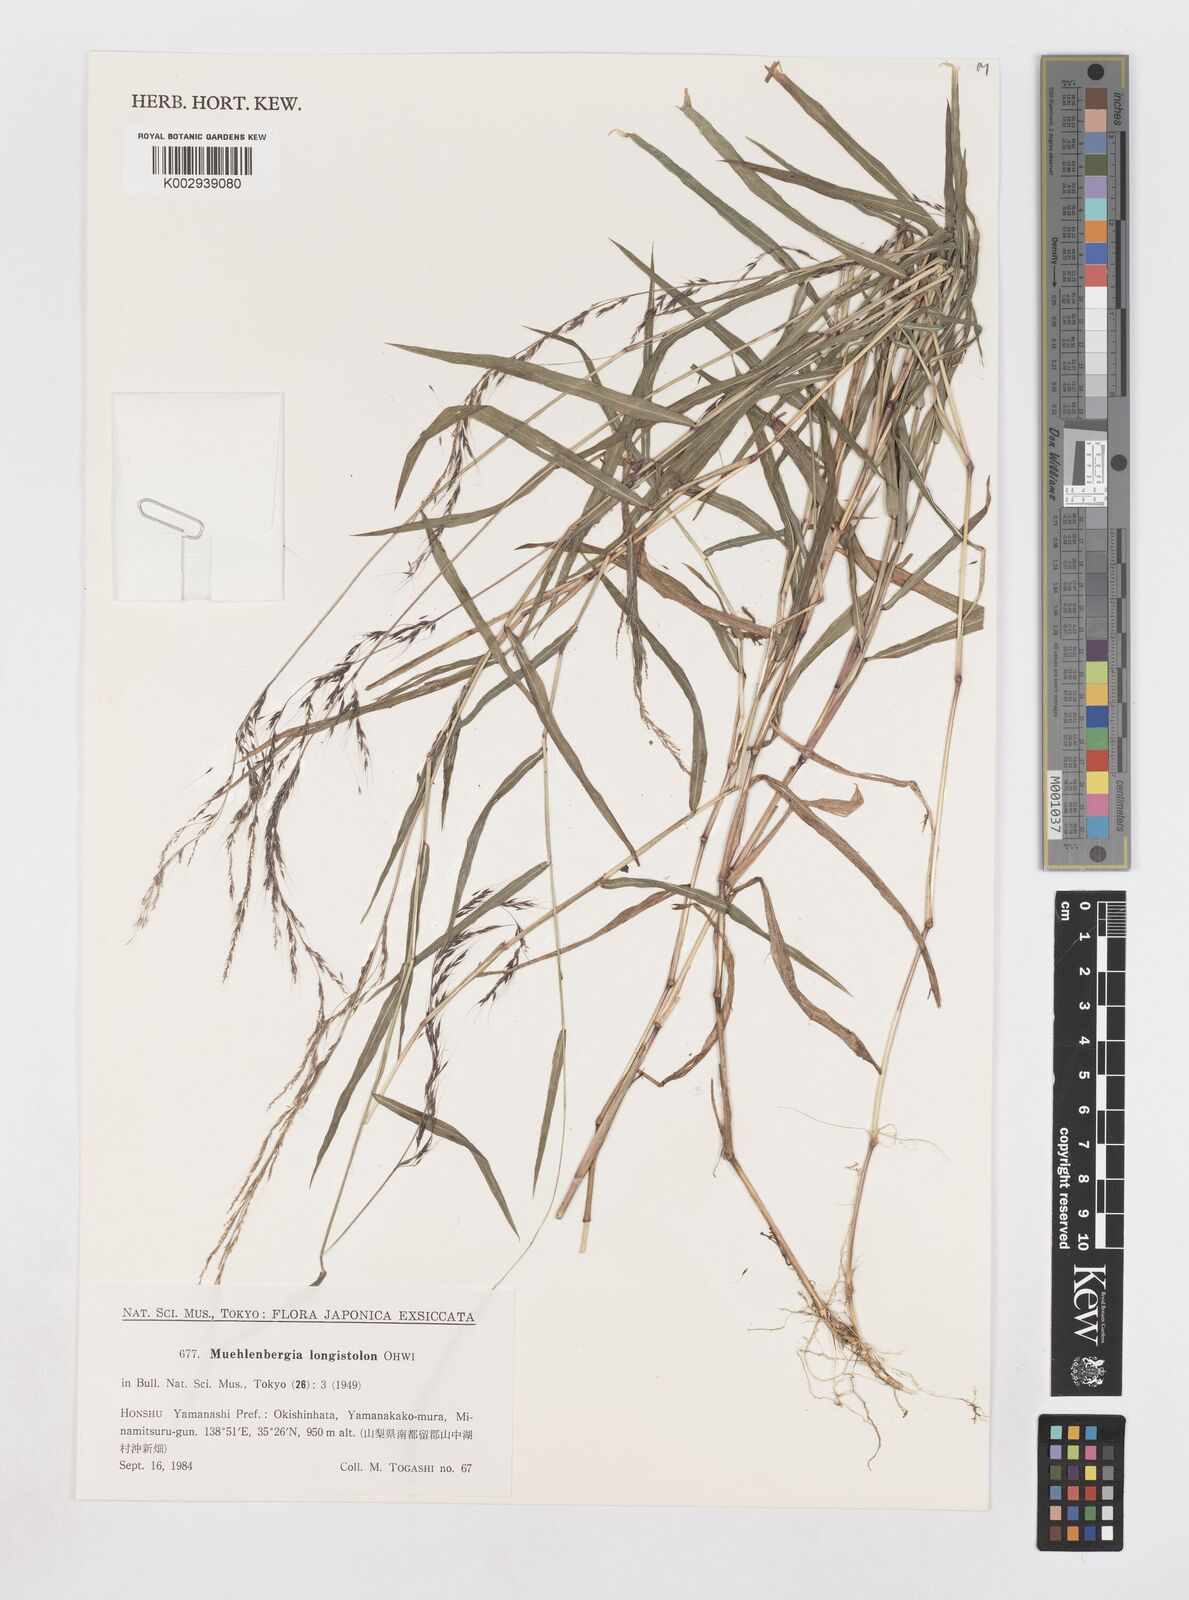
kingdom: Plantae
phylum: Tracheophyta
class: Liliopsida
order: Poales
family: Poaceae
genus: Muhlenbergia
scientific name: Muhlenbergia huegelii
